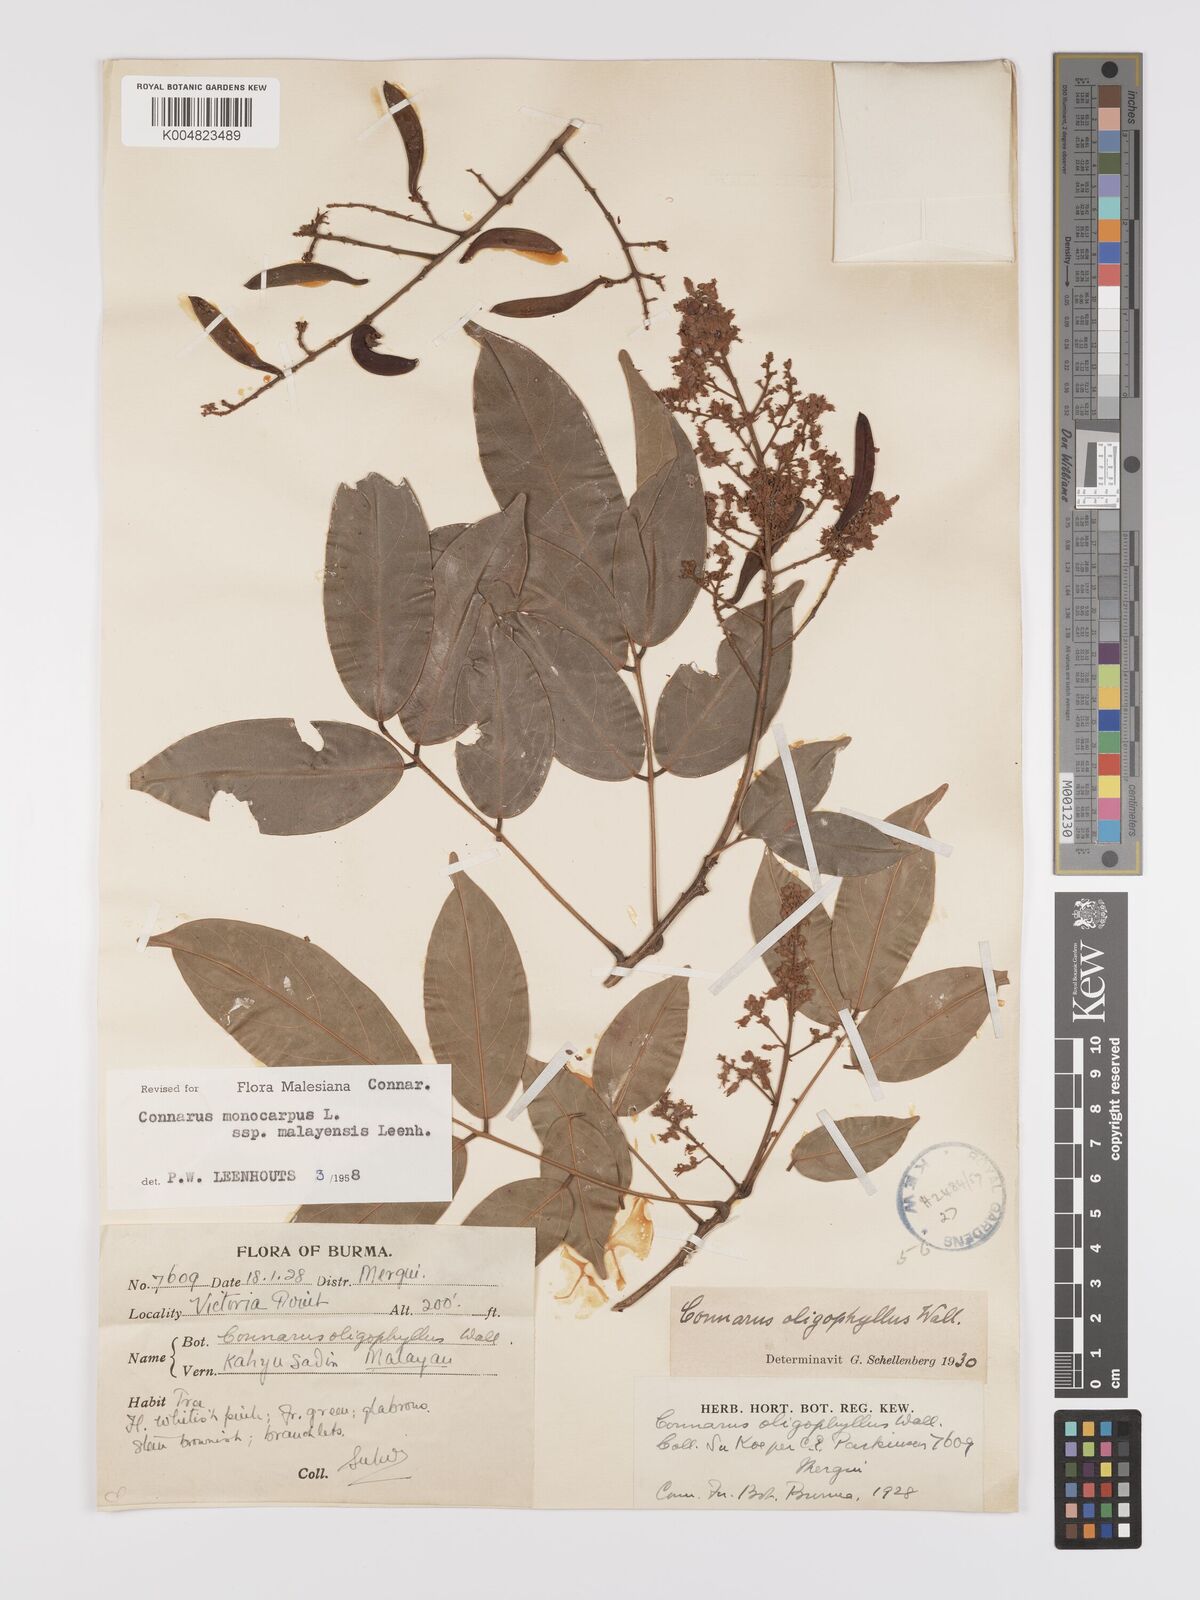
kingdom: Plantae
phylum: Tracheophyta
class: Magnoliopsida
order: Oxalidales
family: Connaraceae
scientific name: Connaraceae
